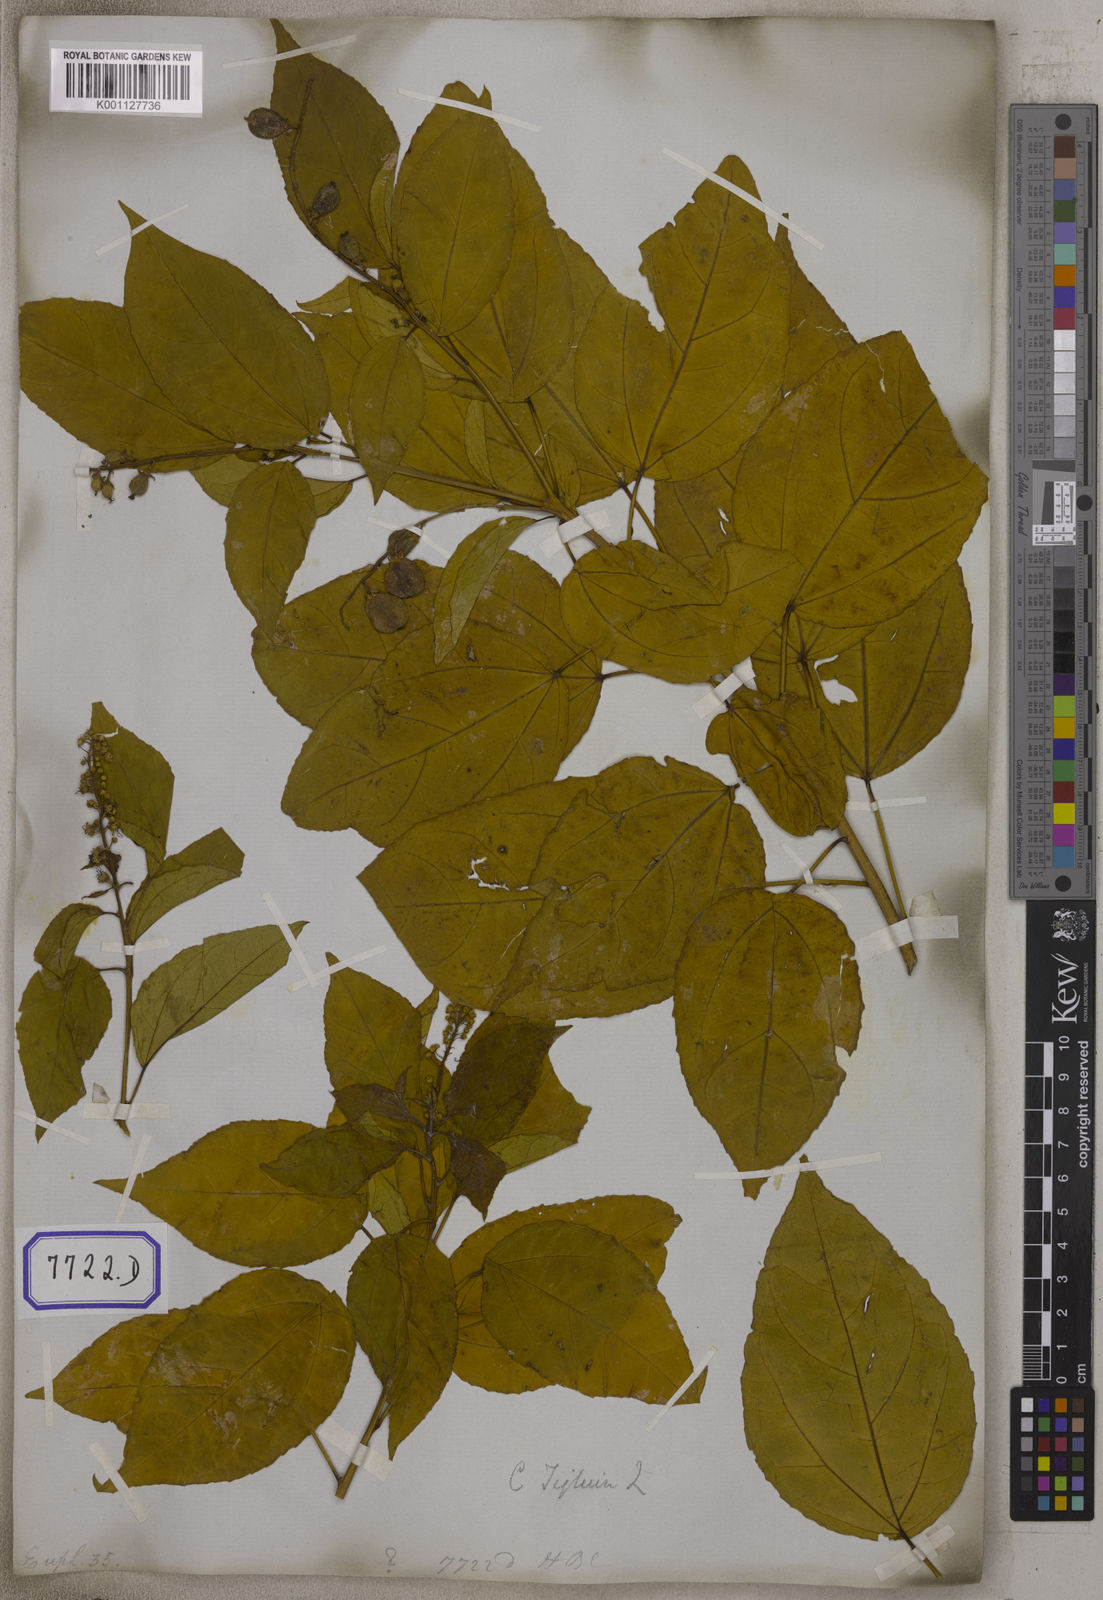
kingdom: Plantae
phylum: Tracheophyta
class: Magnoliopsida
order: Malpighiales
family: Euphorbiaceae
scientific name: Euphorbiaceae
